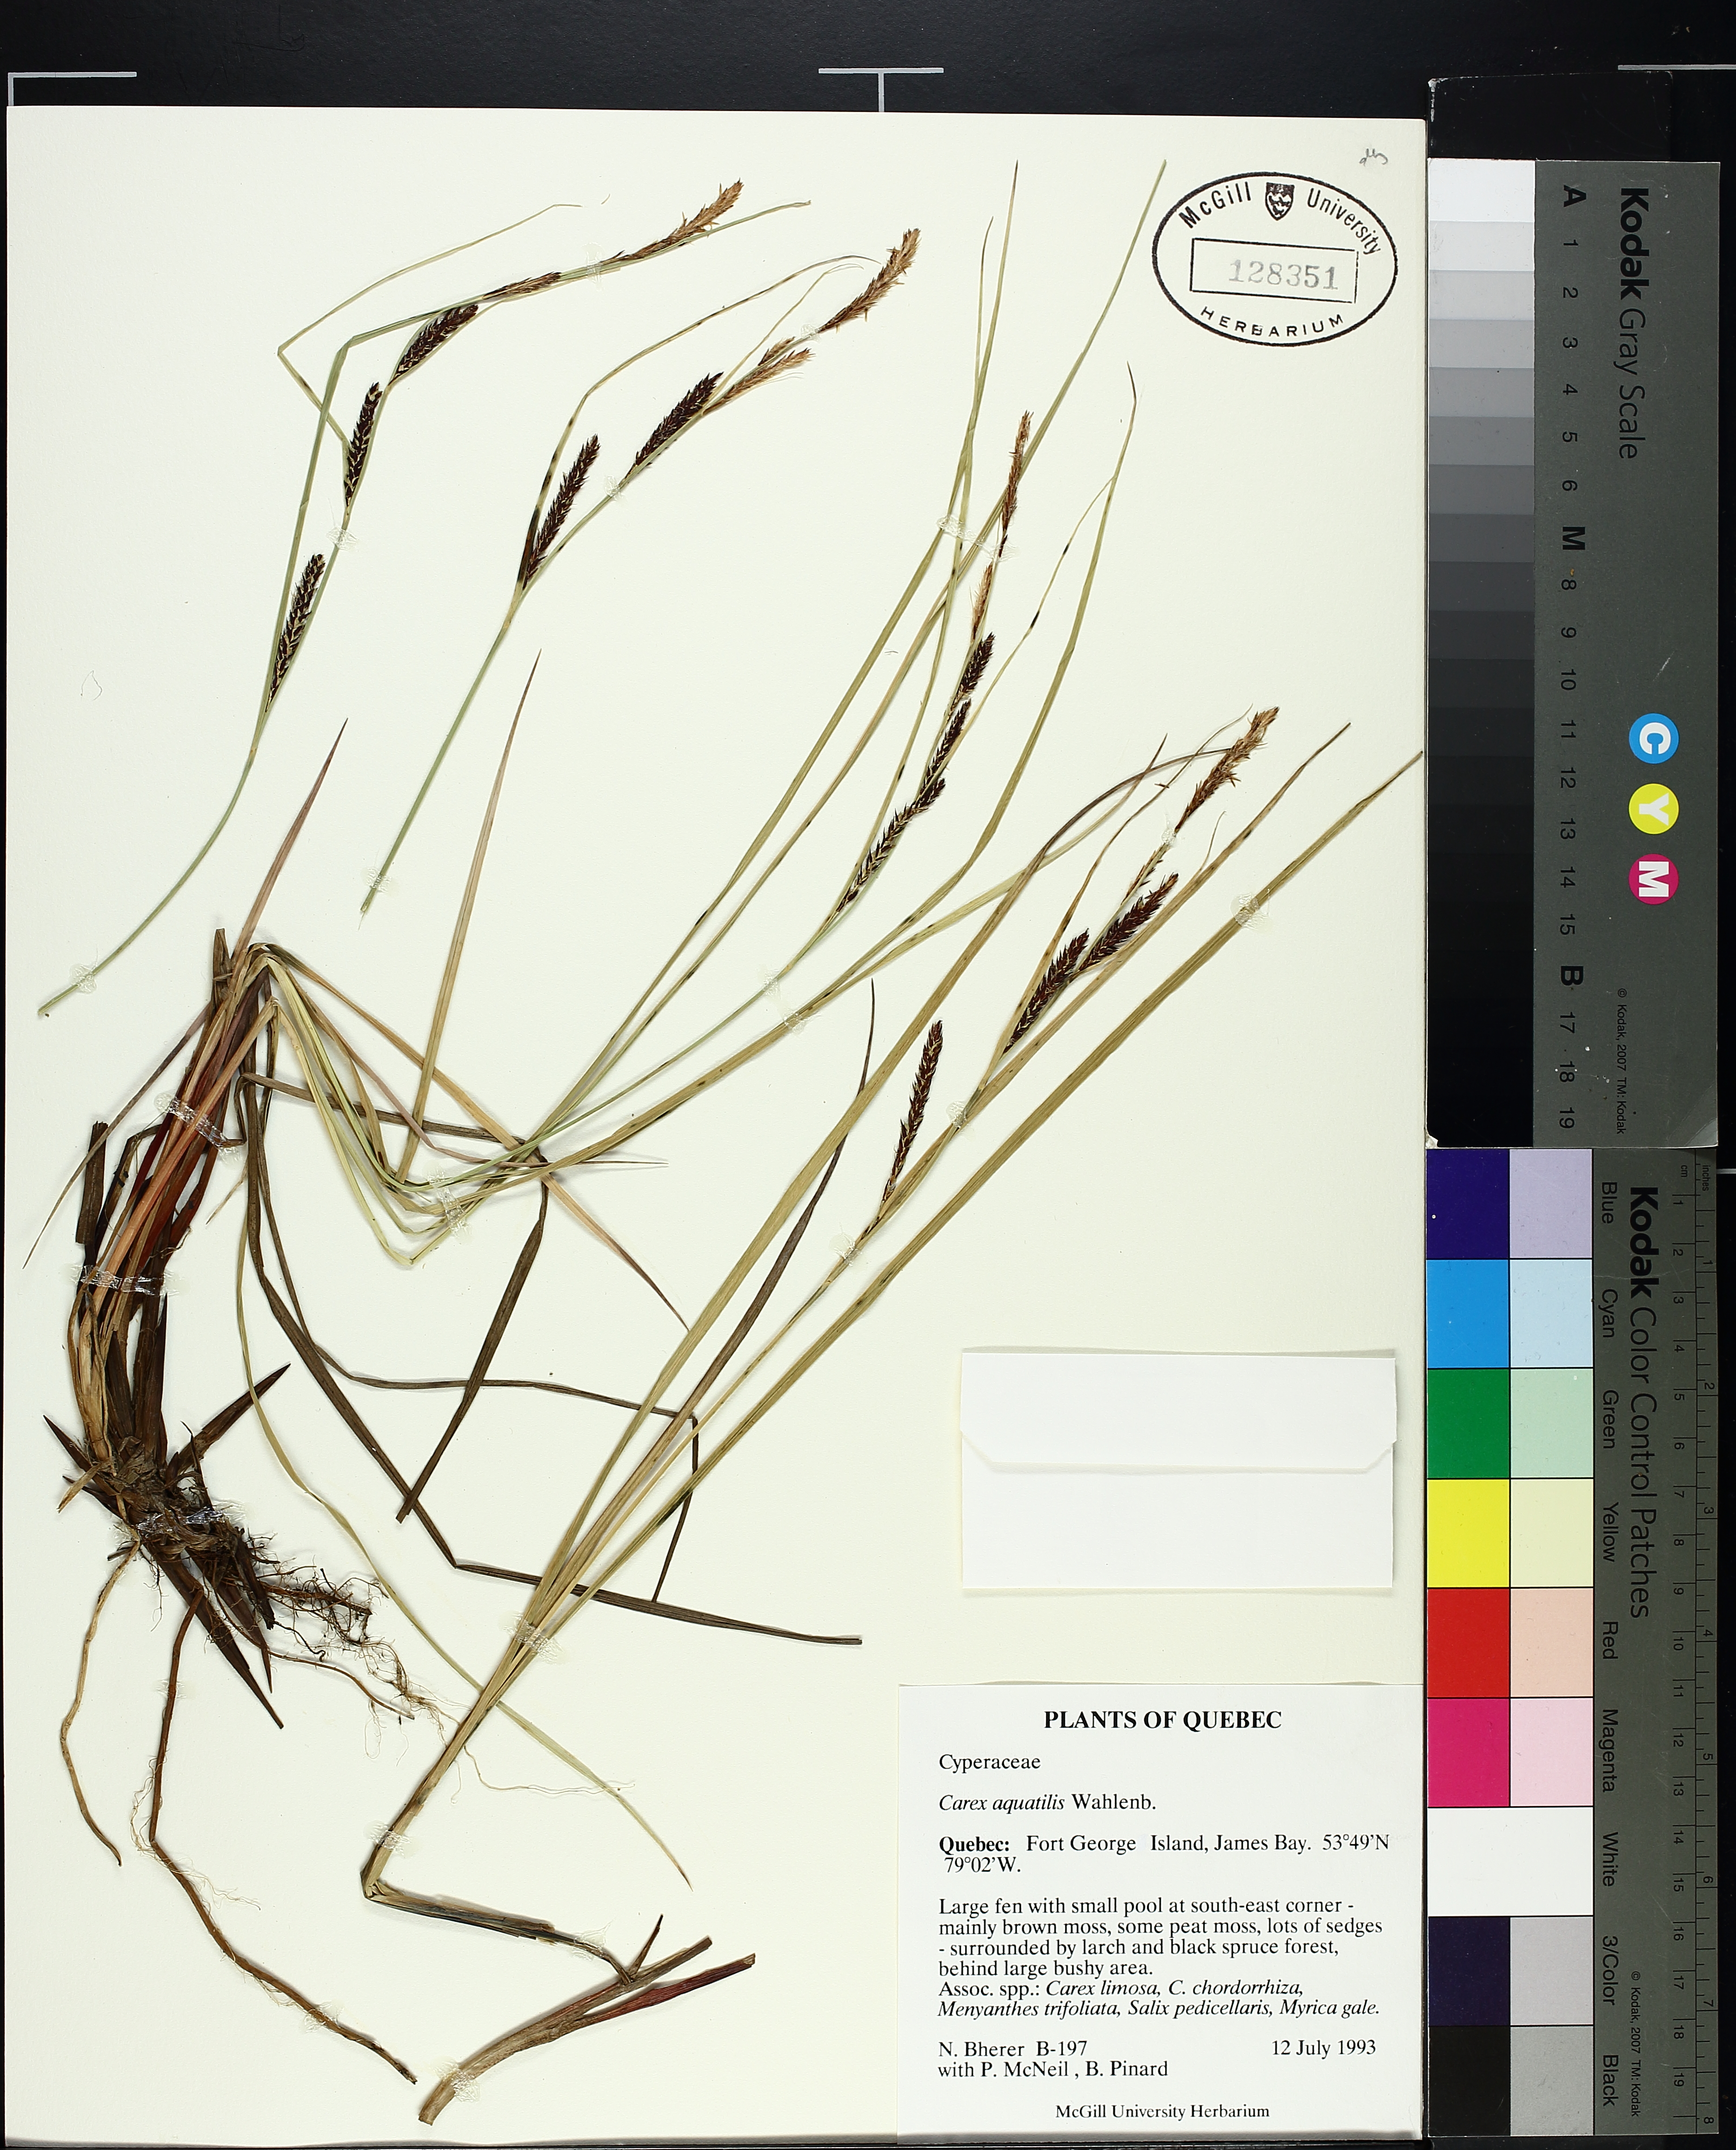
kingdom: Plantae
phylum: Tracheophyta
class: Liliopsida
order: Poales
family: Cyperaceae
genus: Carex
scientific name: Carex aquatilis
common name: Water sedge
